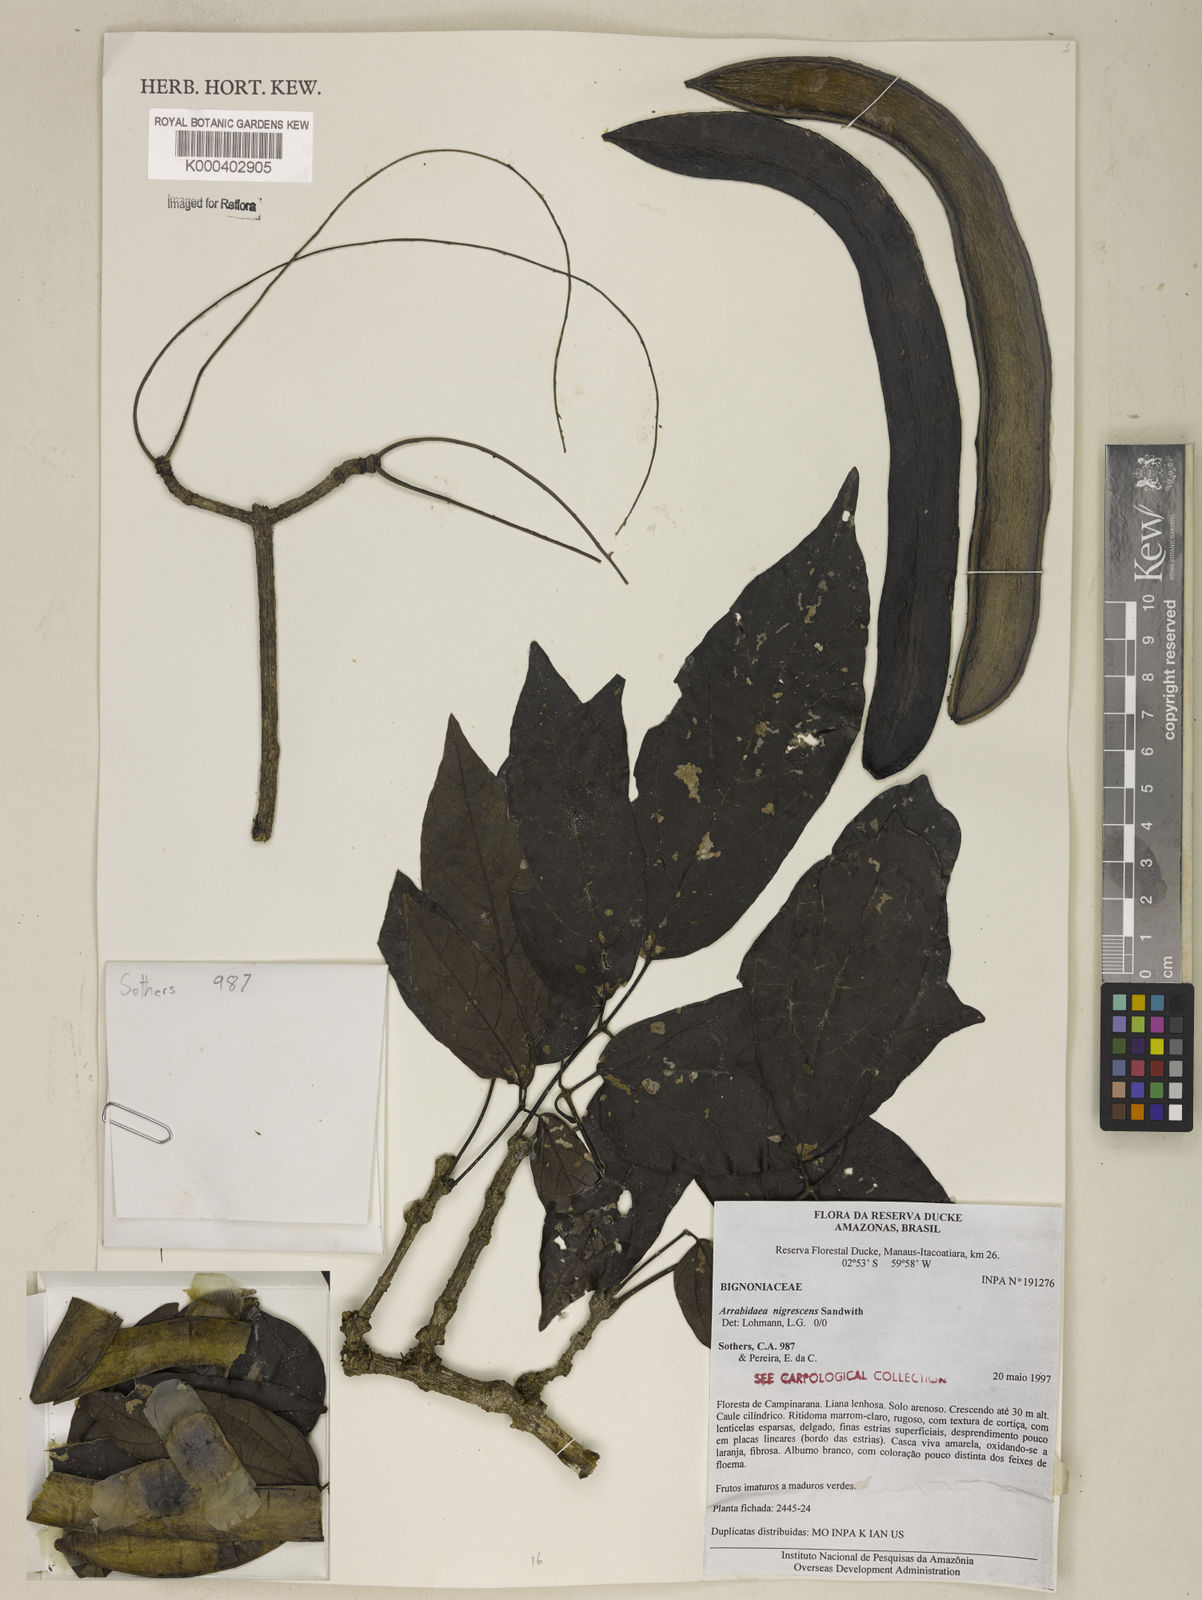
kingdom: Plantae
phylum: Tracheophyta
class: Magnoliopsida
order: Lamiales
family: Bignoniaceae
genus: Fridericia
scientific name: Fridericia nigrescens
